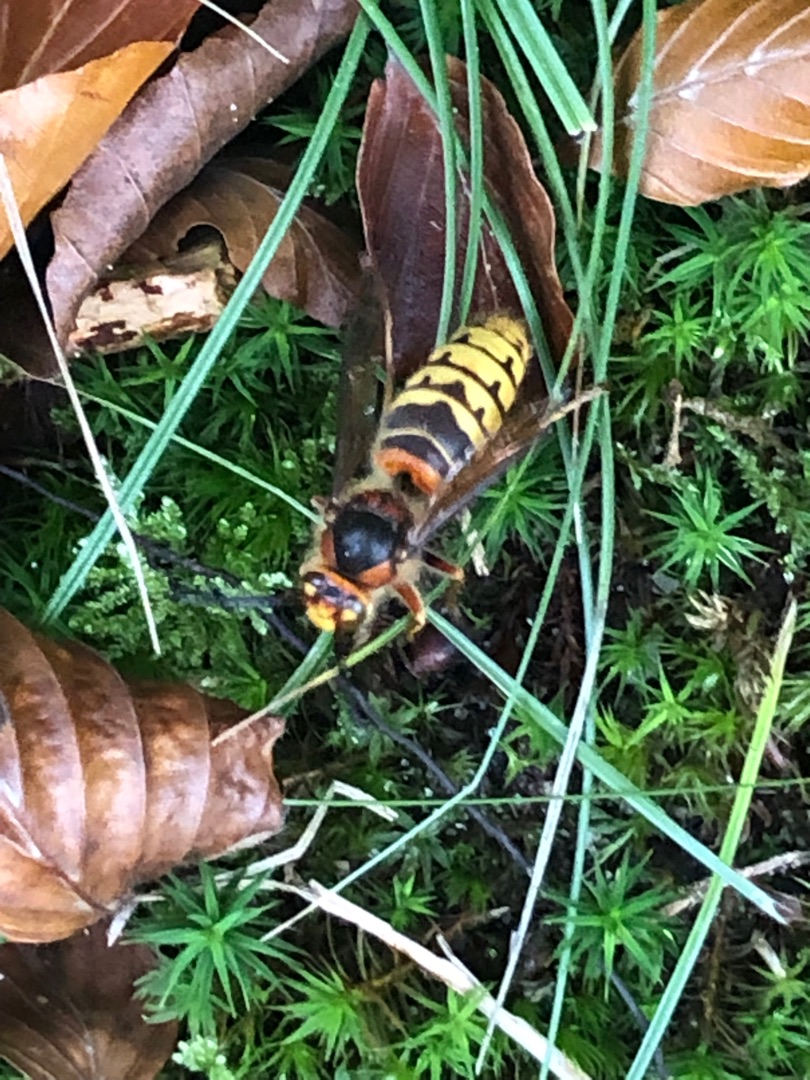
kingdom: Animalia
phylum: Arthropoda
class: Insecta
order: Hymenoptera
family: Vespidae
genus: Vespa
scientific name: Vespa crabro
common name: Stor gedehams
